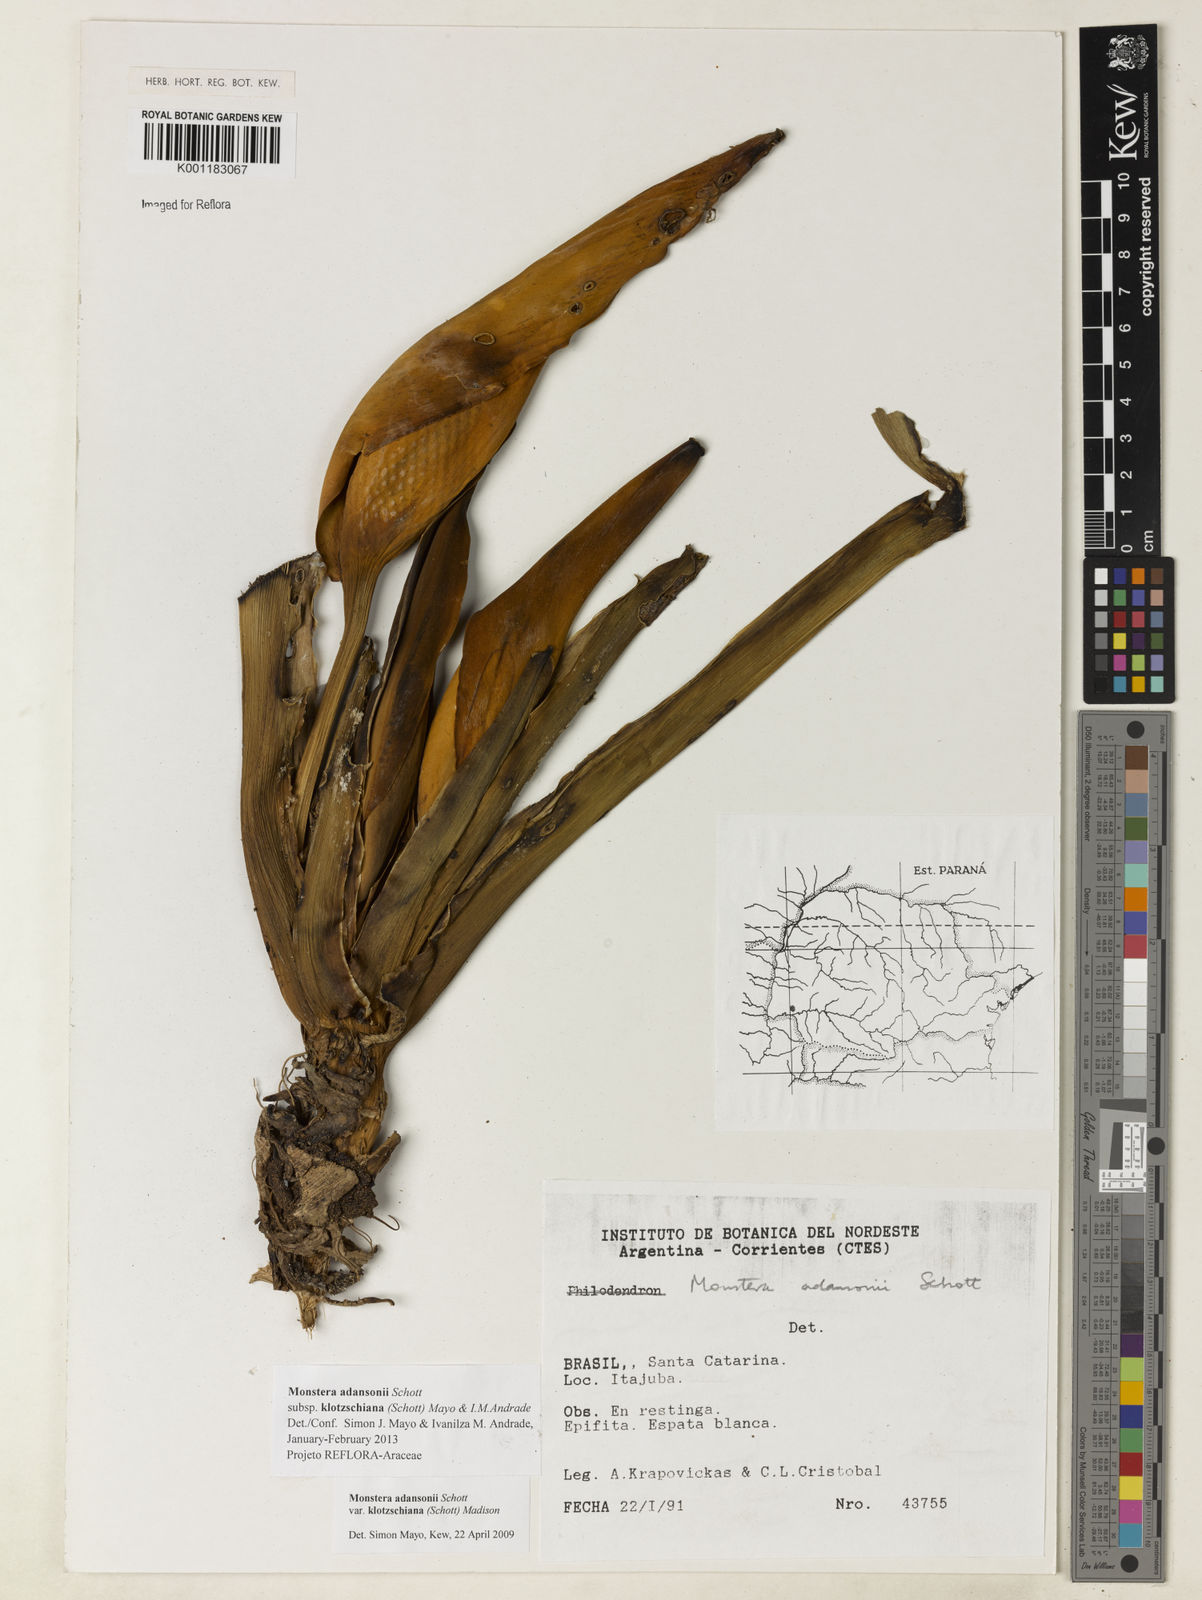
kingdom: Plantae
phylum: Tracheophyta
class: Liliopsida
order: Alismatales
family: Araceae
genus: Monstera
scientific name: Monstera adansonii
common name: Tarovine
